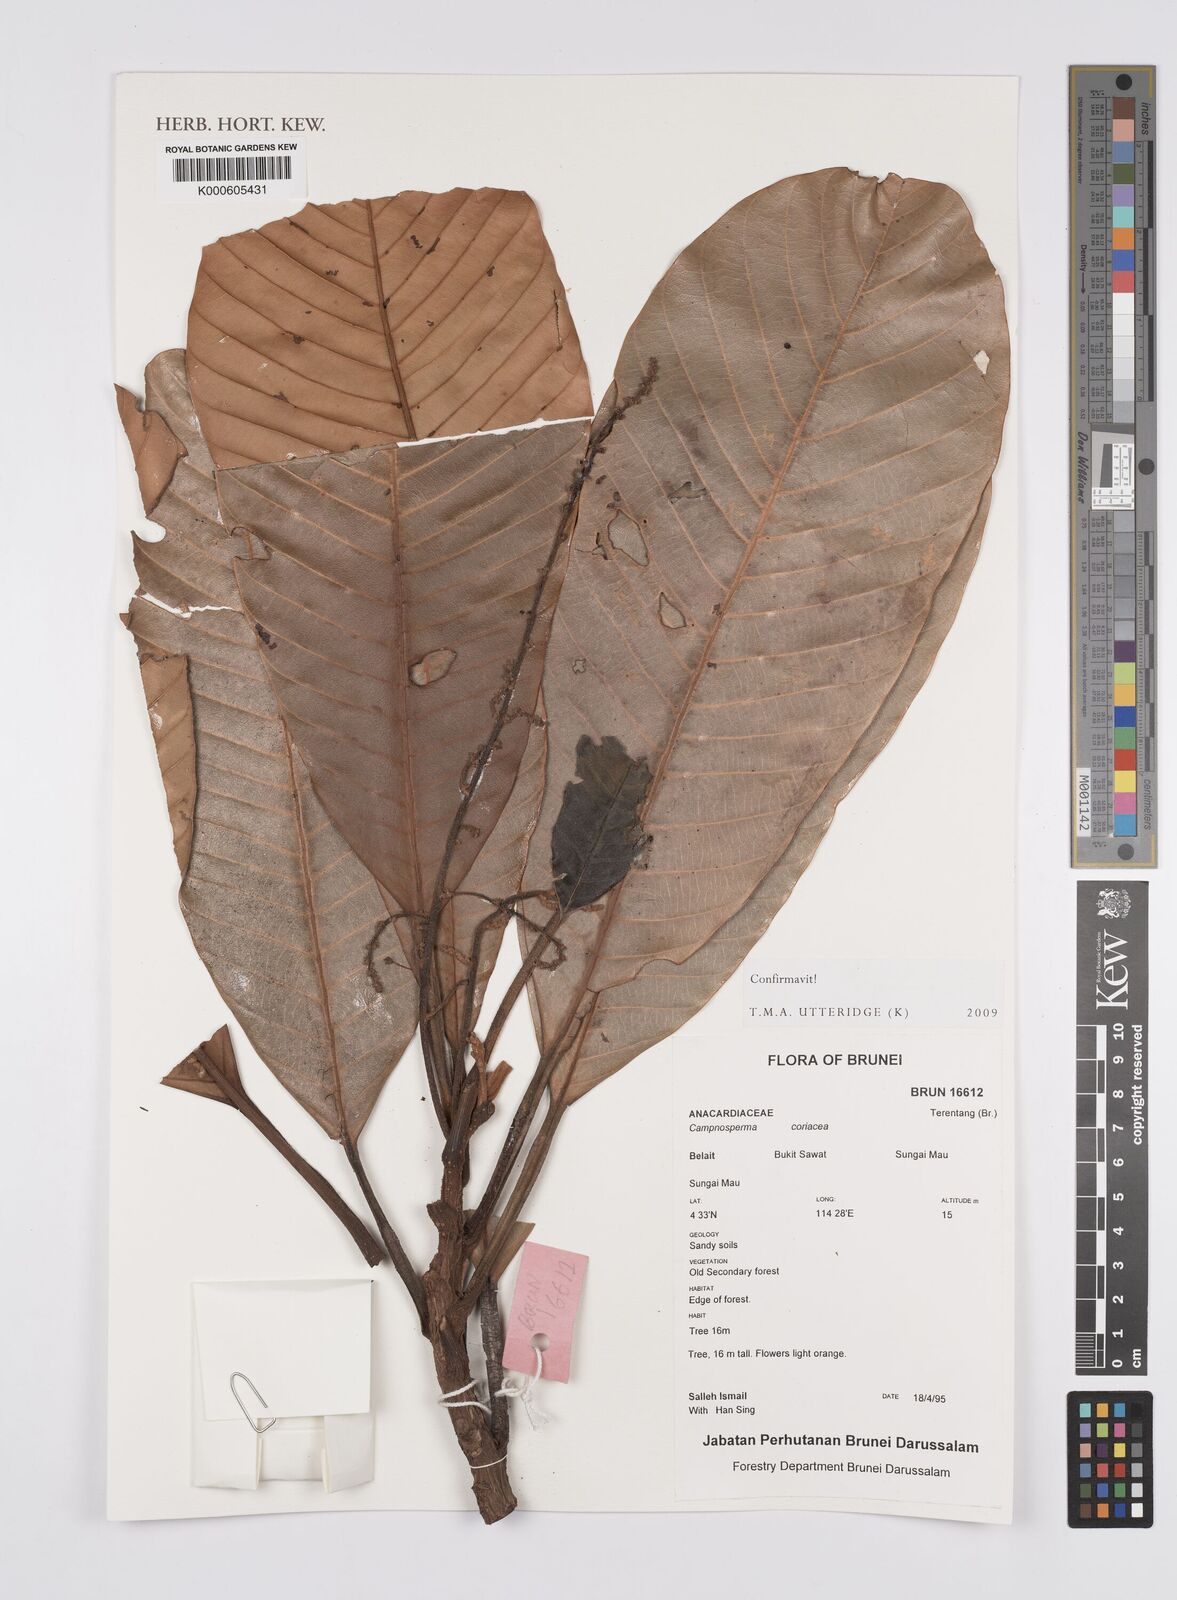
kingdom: Plantae
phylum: Tracheophyta
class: Magnoliopsida
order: Sapindales
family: Anacardiaceae
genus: Campnosperma
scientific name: Campnosperma
